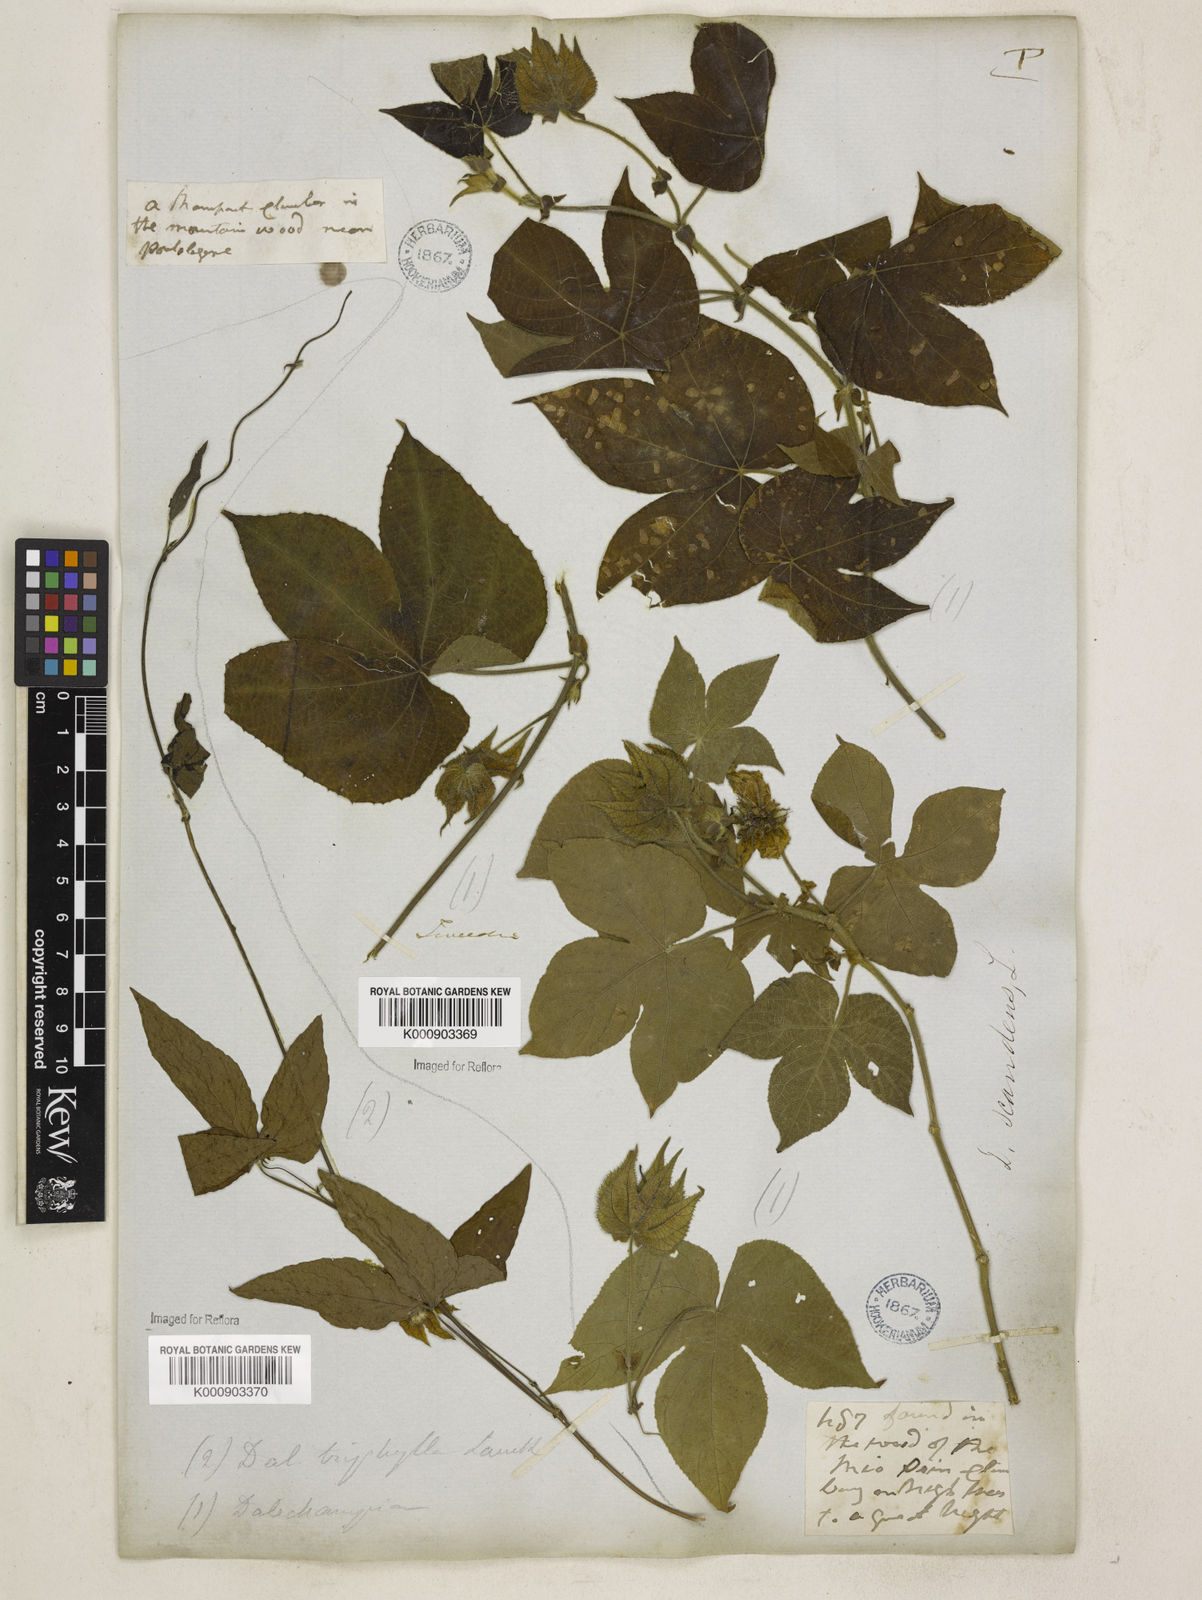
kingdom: Plantae
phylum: Tracheophyta
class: Magnoliopsida
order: Malpighiales
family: Euphorbiaceae
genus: Dalechampia
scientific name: Dalechampia pernambucensis
